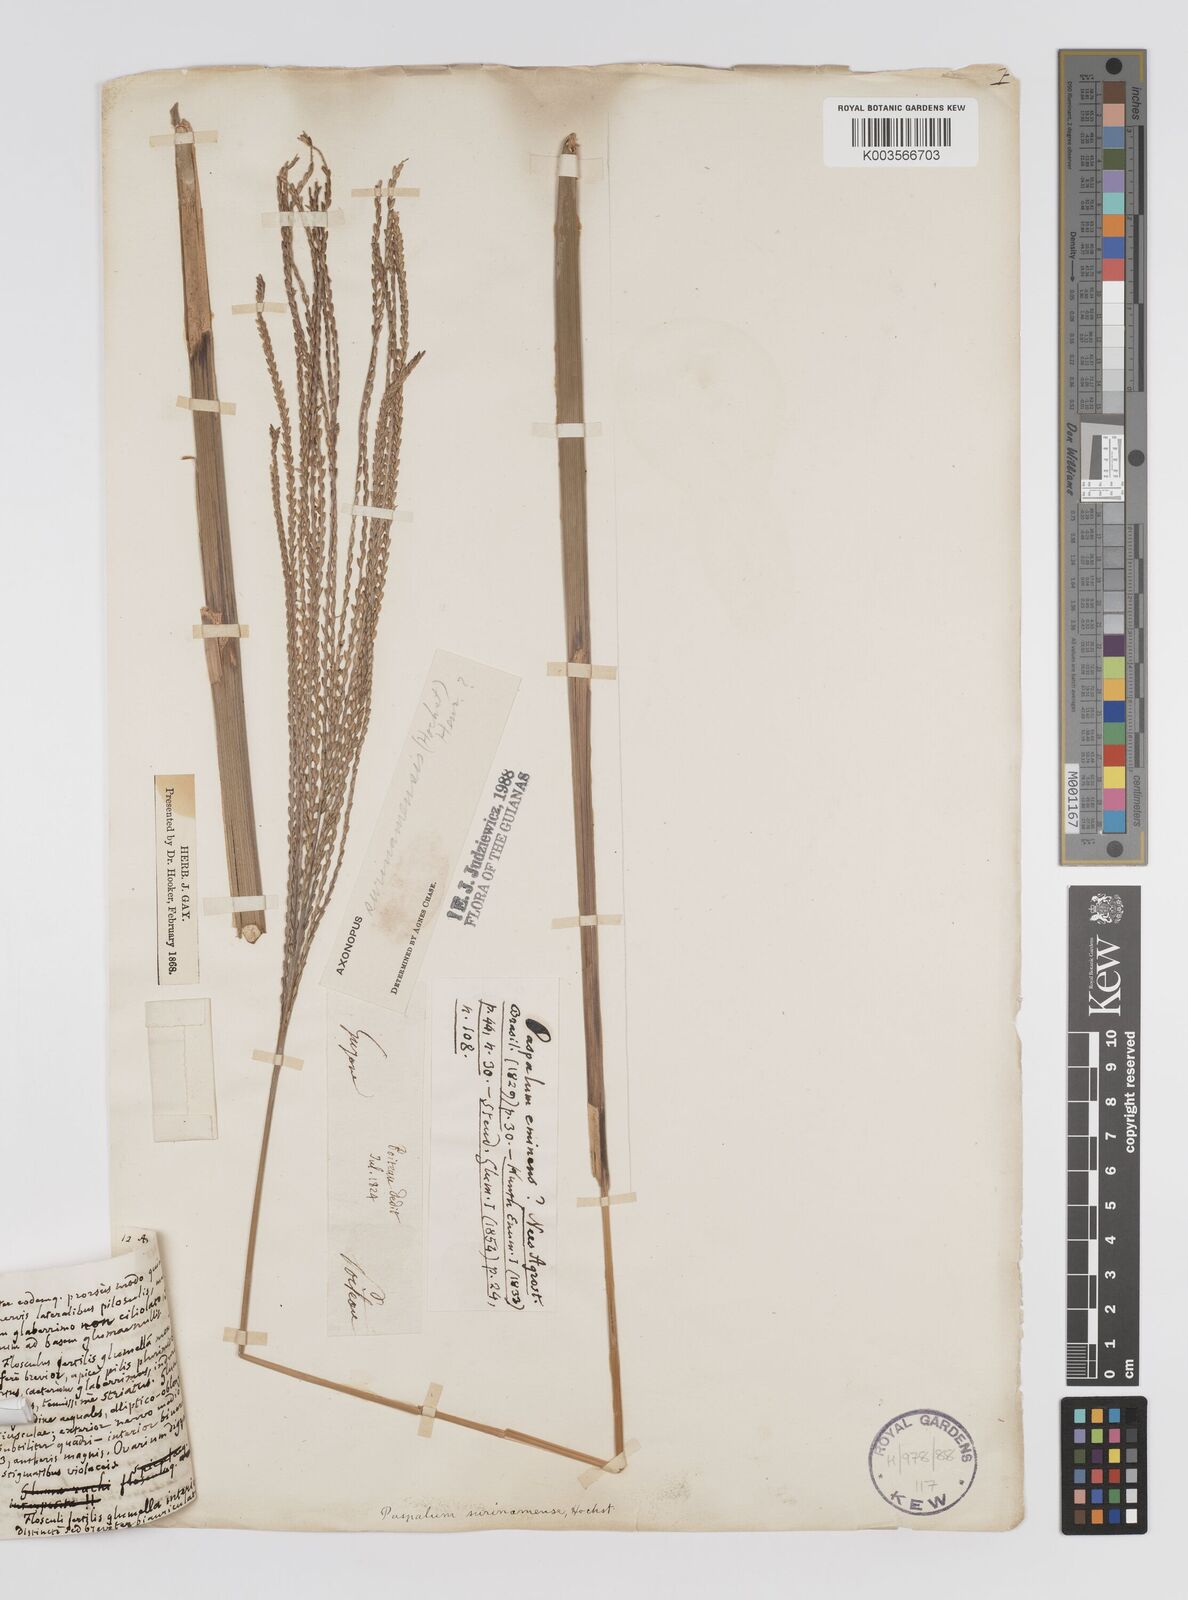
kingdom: Plantae
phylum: Tracheophyta
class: Liliopsida
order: Poales
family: Poaceae
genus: Axonopus
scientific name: Axonopus surinamensis
